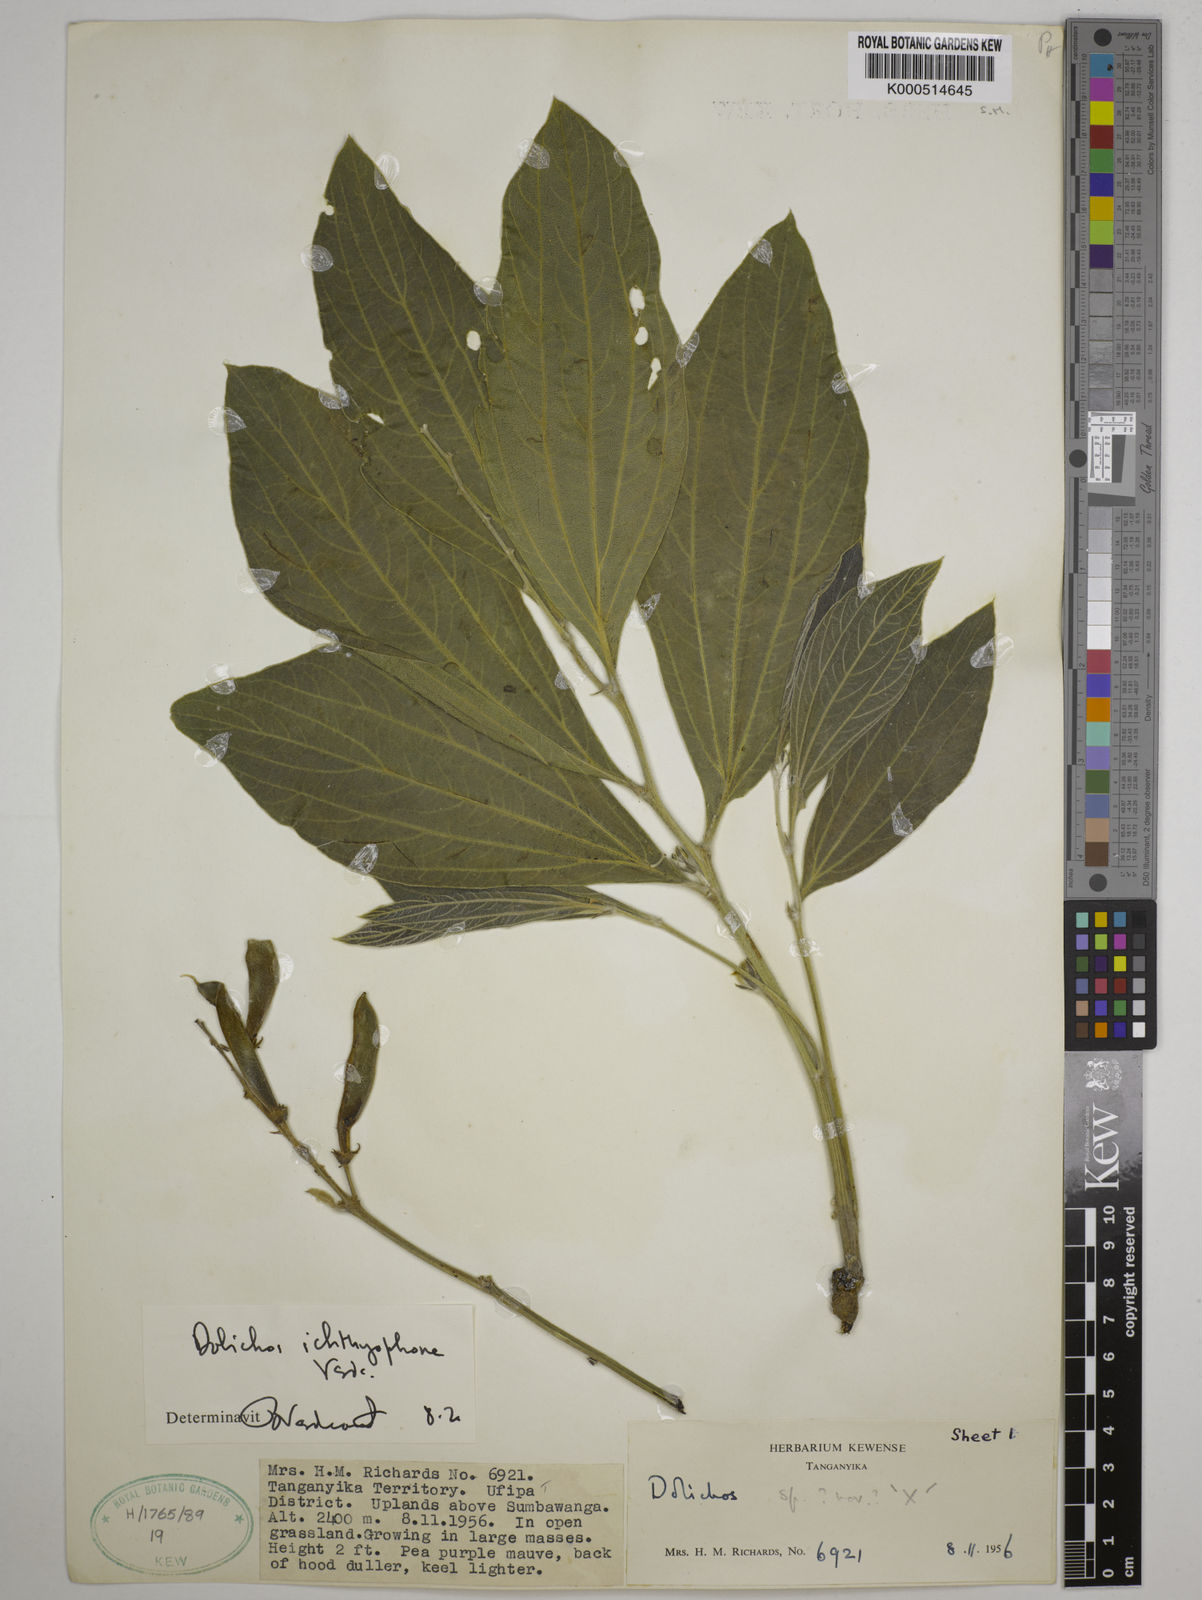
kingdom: Plantae
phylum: Tracheophyta
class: Magnoliopsida
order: Fabales
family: Fabaceae
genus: Dolichos
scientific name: Dolichos ichthyophone
